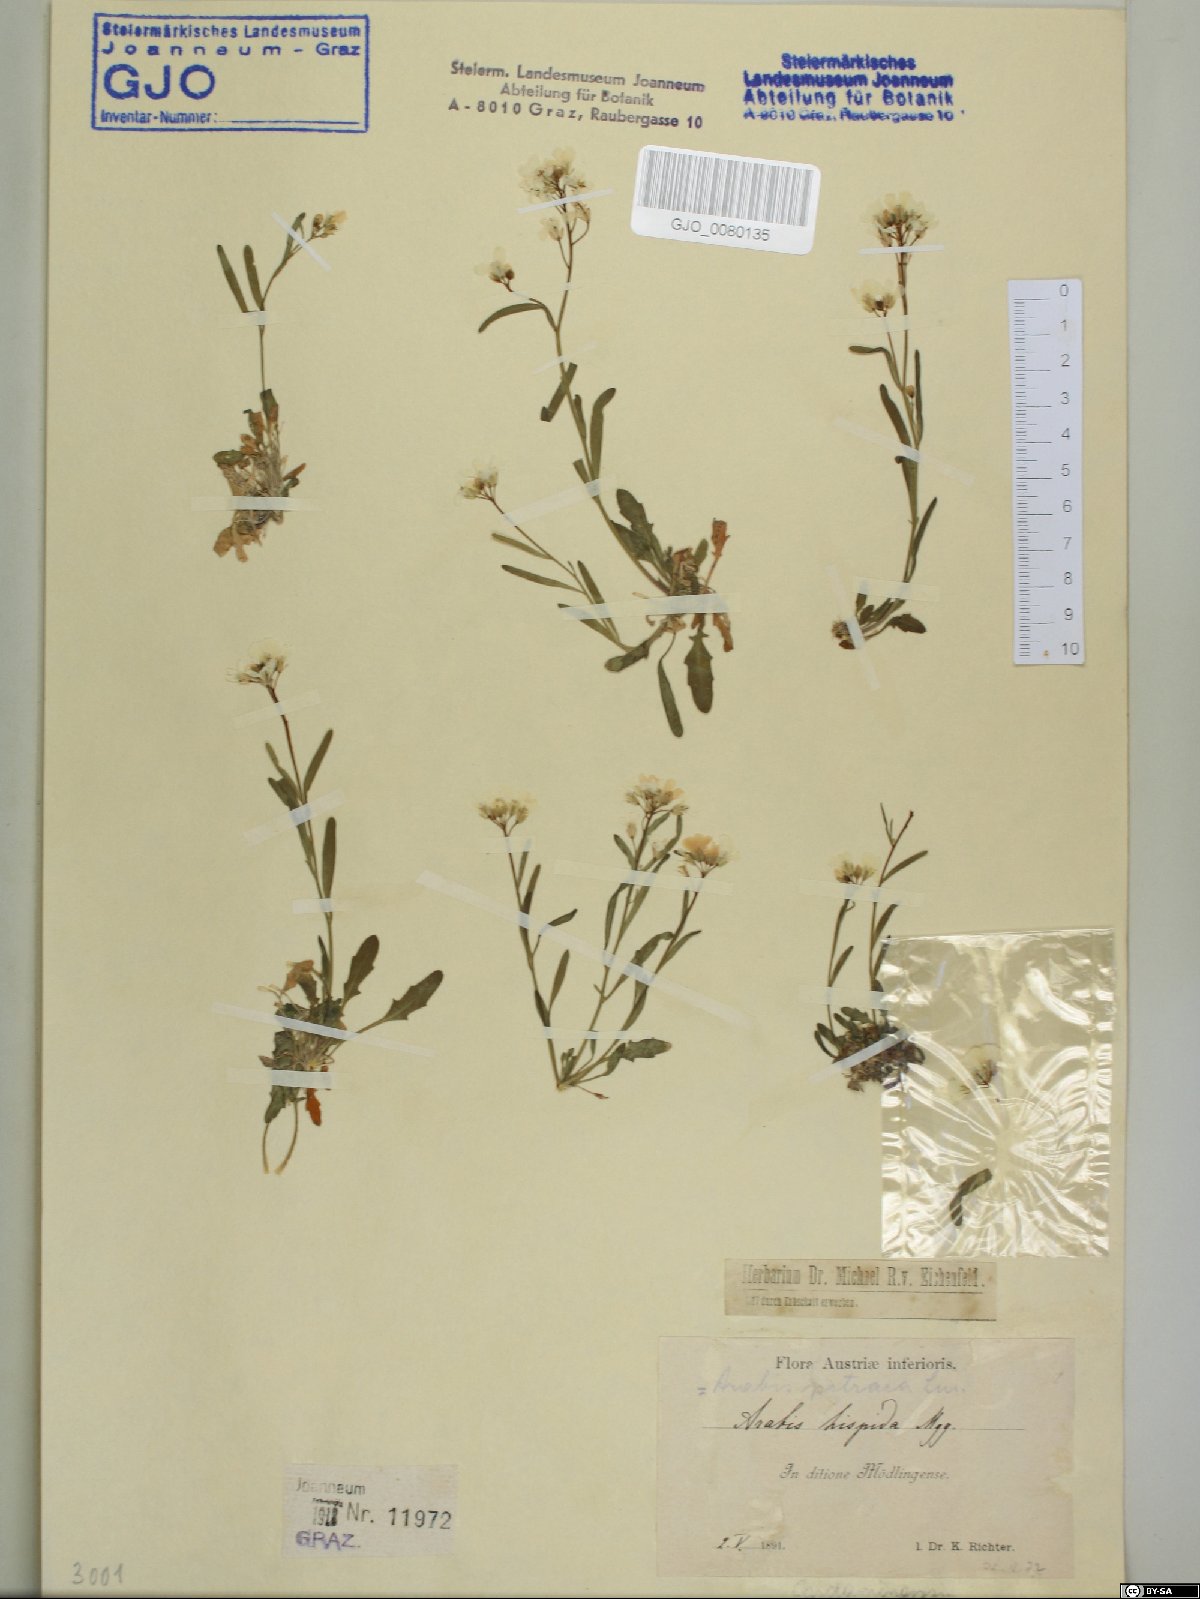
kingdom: Plantae
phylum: Tracheophyta
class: Magnoliopsida
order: Brassicales
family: Brassicaceae
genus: Arabidopsis
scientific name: Arabidopsis lyrata
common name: Lyrate rockcress
